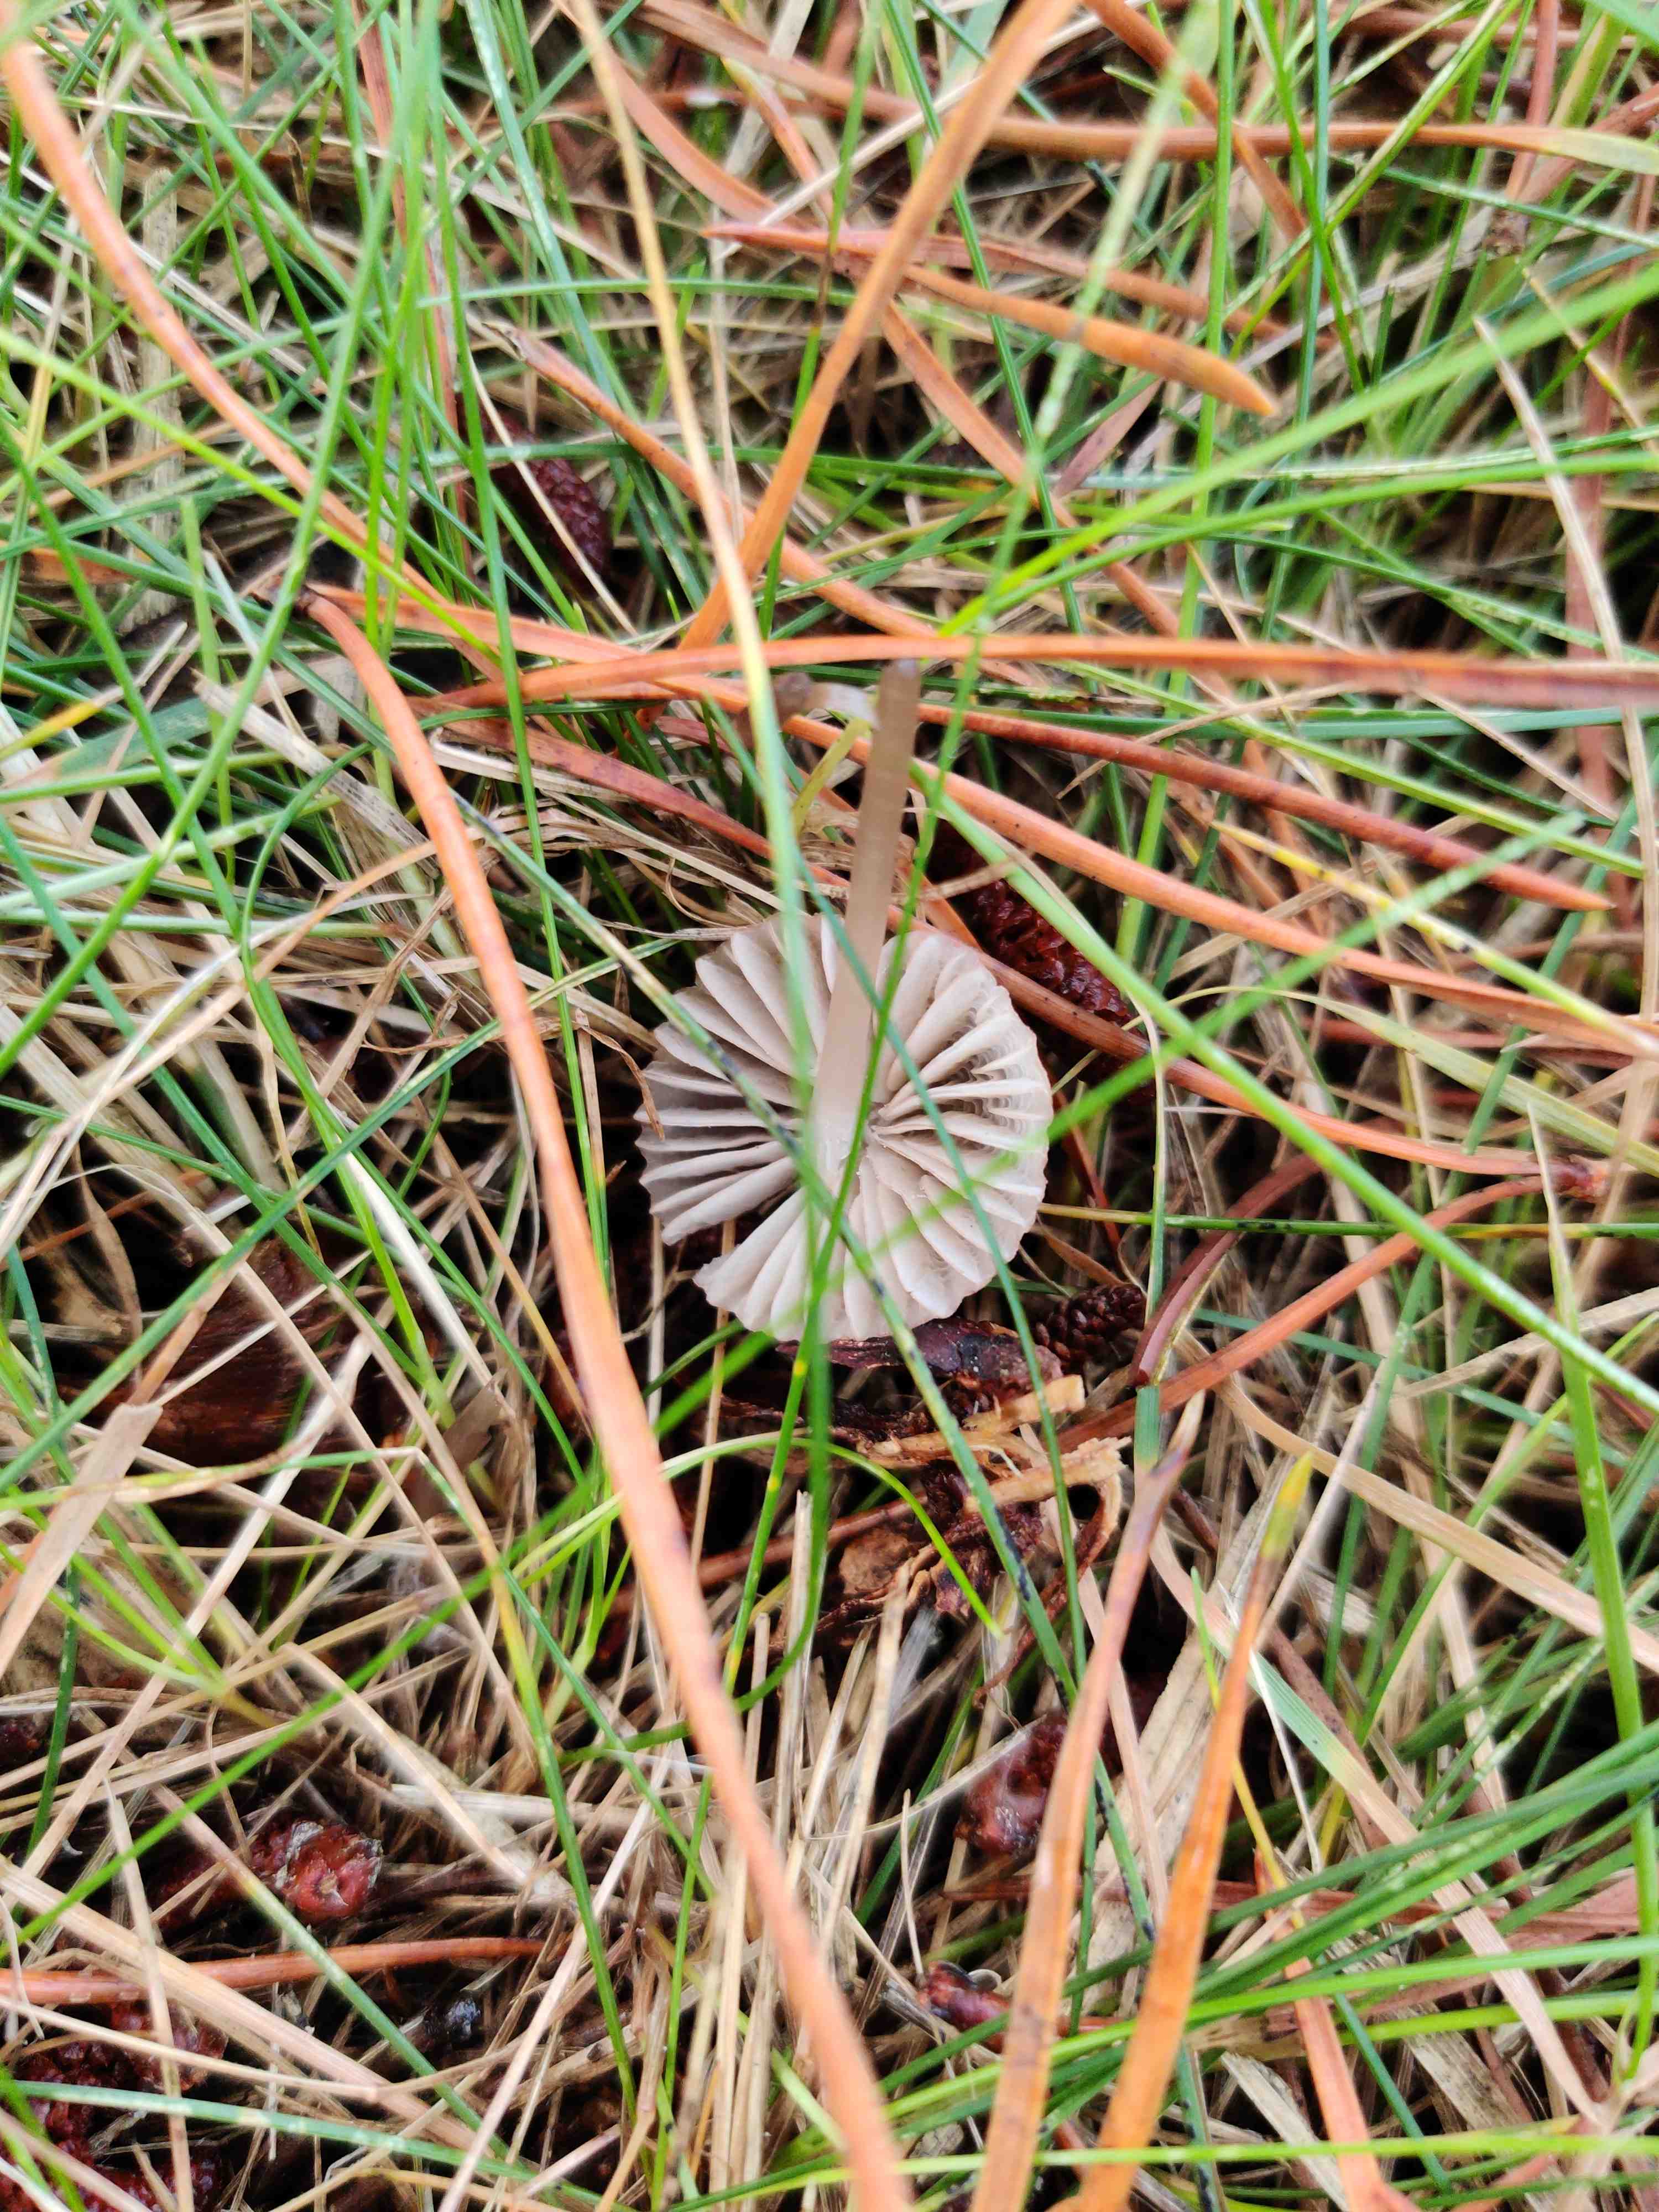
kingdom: Fungi
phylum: Basidiomycota
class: Agaricomycetes
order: Agaricales
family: Mycenaceae
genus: Mycena
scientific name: Mycena olivaceomarginata
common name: brunægget huesvamp
